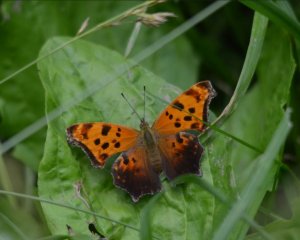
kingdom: Animalia
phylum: Arthropoda
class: Insecta
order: Lepidoptera
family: Nymphalidae
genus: Polygonia
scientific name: Polygonia comma
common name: Eastern Comma
